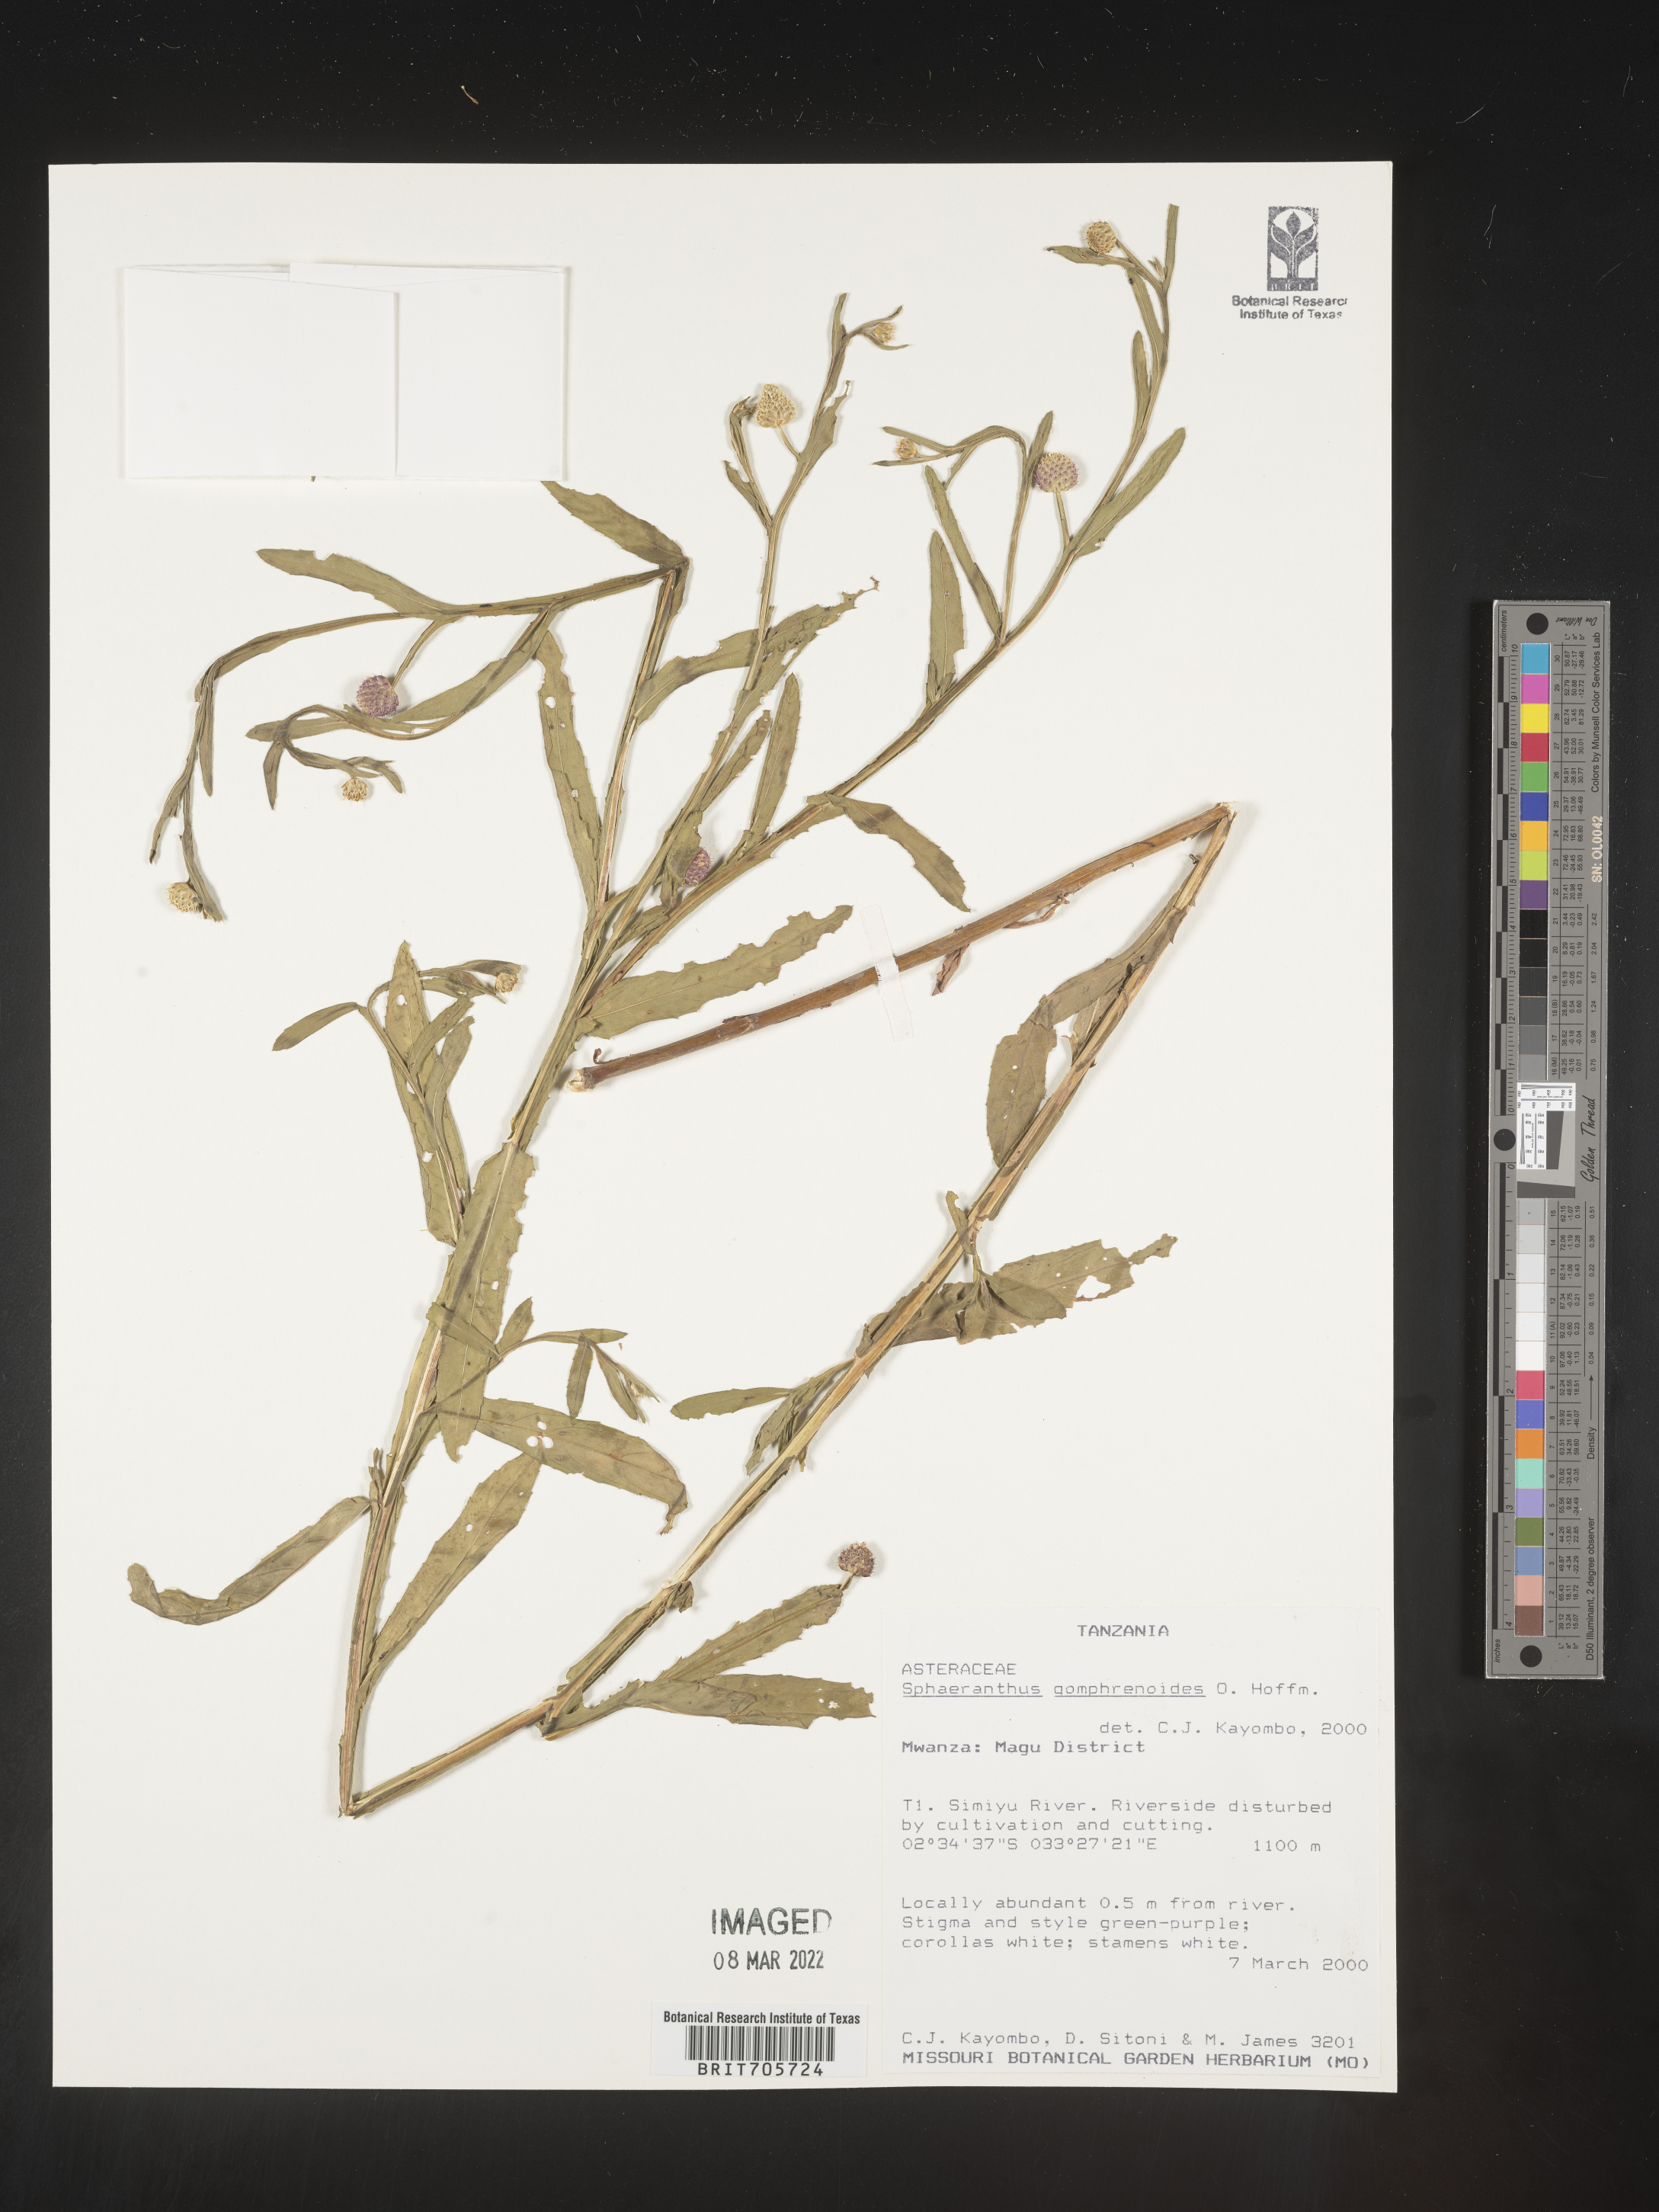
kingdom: Plantae
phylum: Tracheophyta
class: Magnoliopsida
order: Asterales
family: Asteraceae
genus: Sphaeranthus
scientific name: Sphaeranthus
